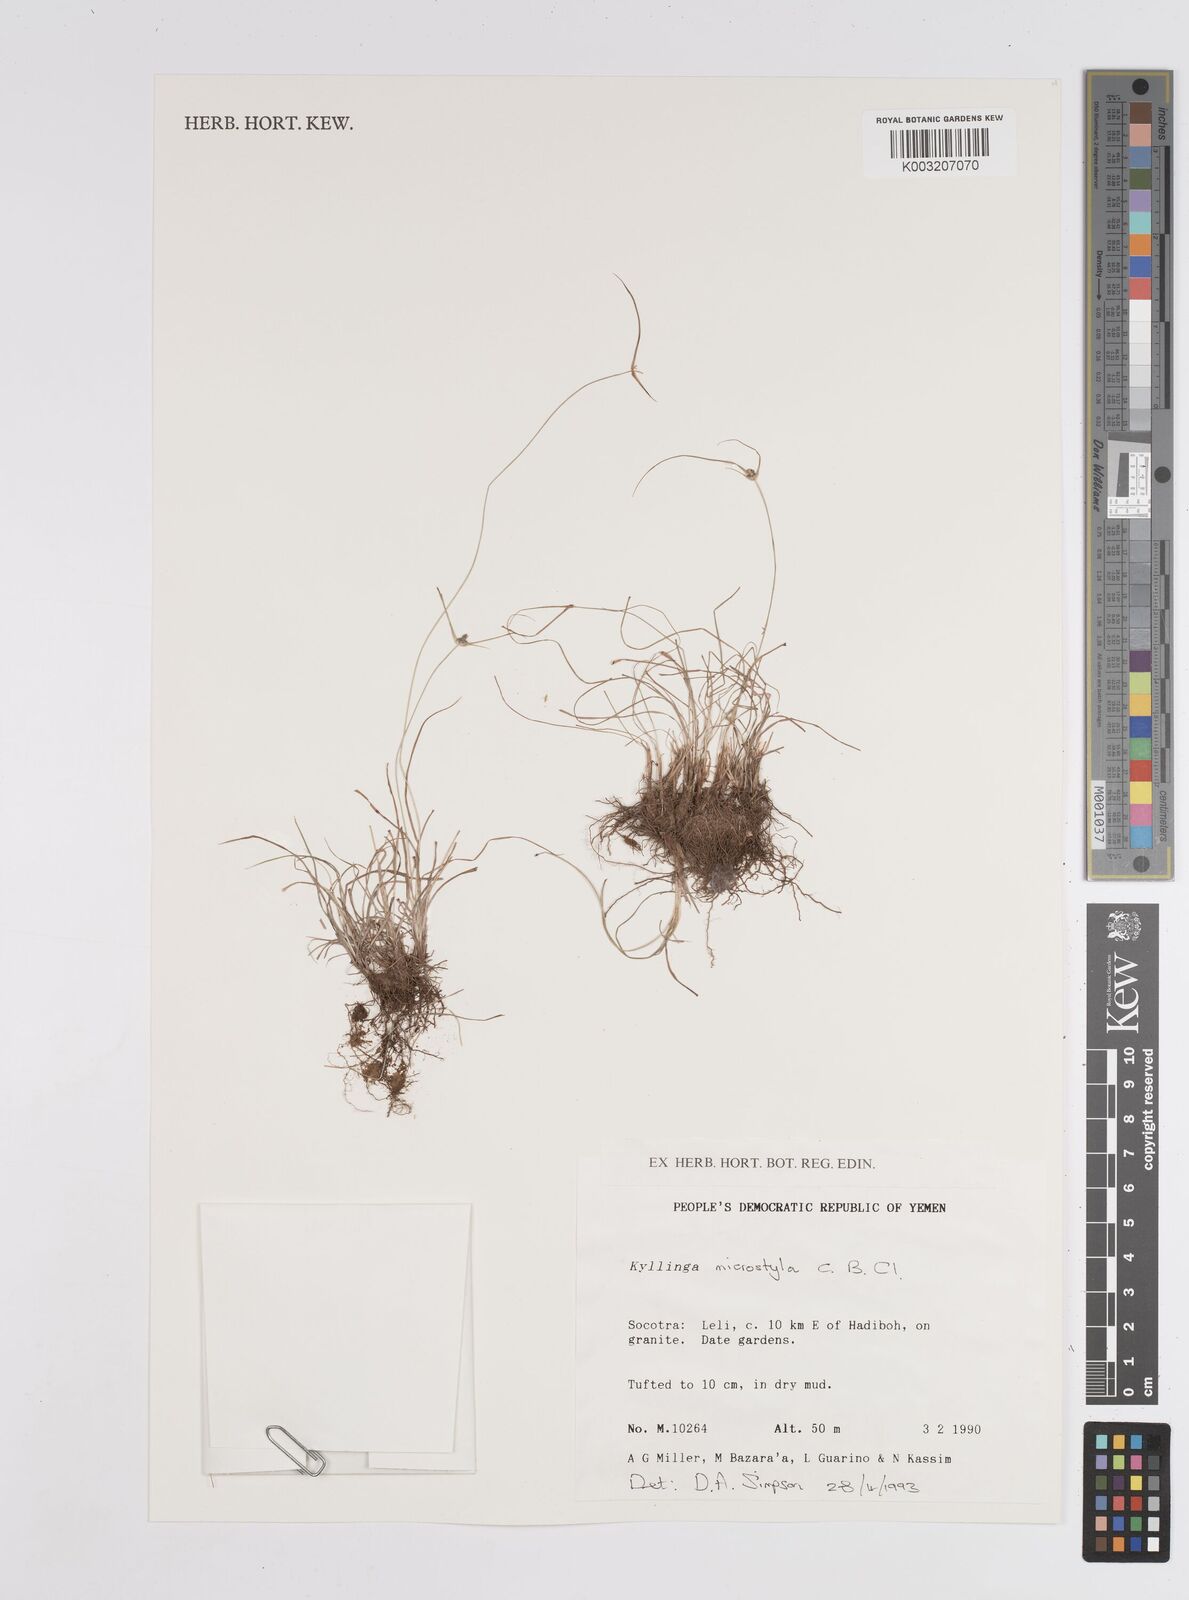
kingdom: Plantae
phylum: Tracheophyta
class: Liliopsida
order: Poales
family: Cyperaceae
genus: Cyperus
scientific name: Cyperus microstylus
